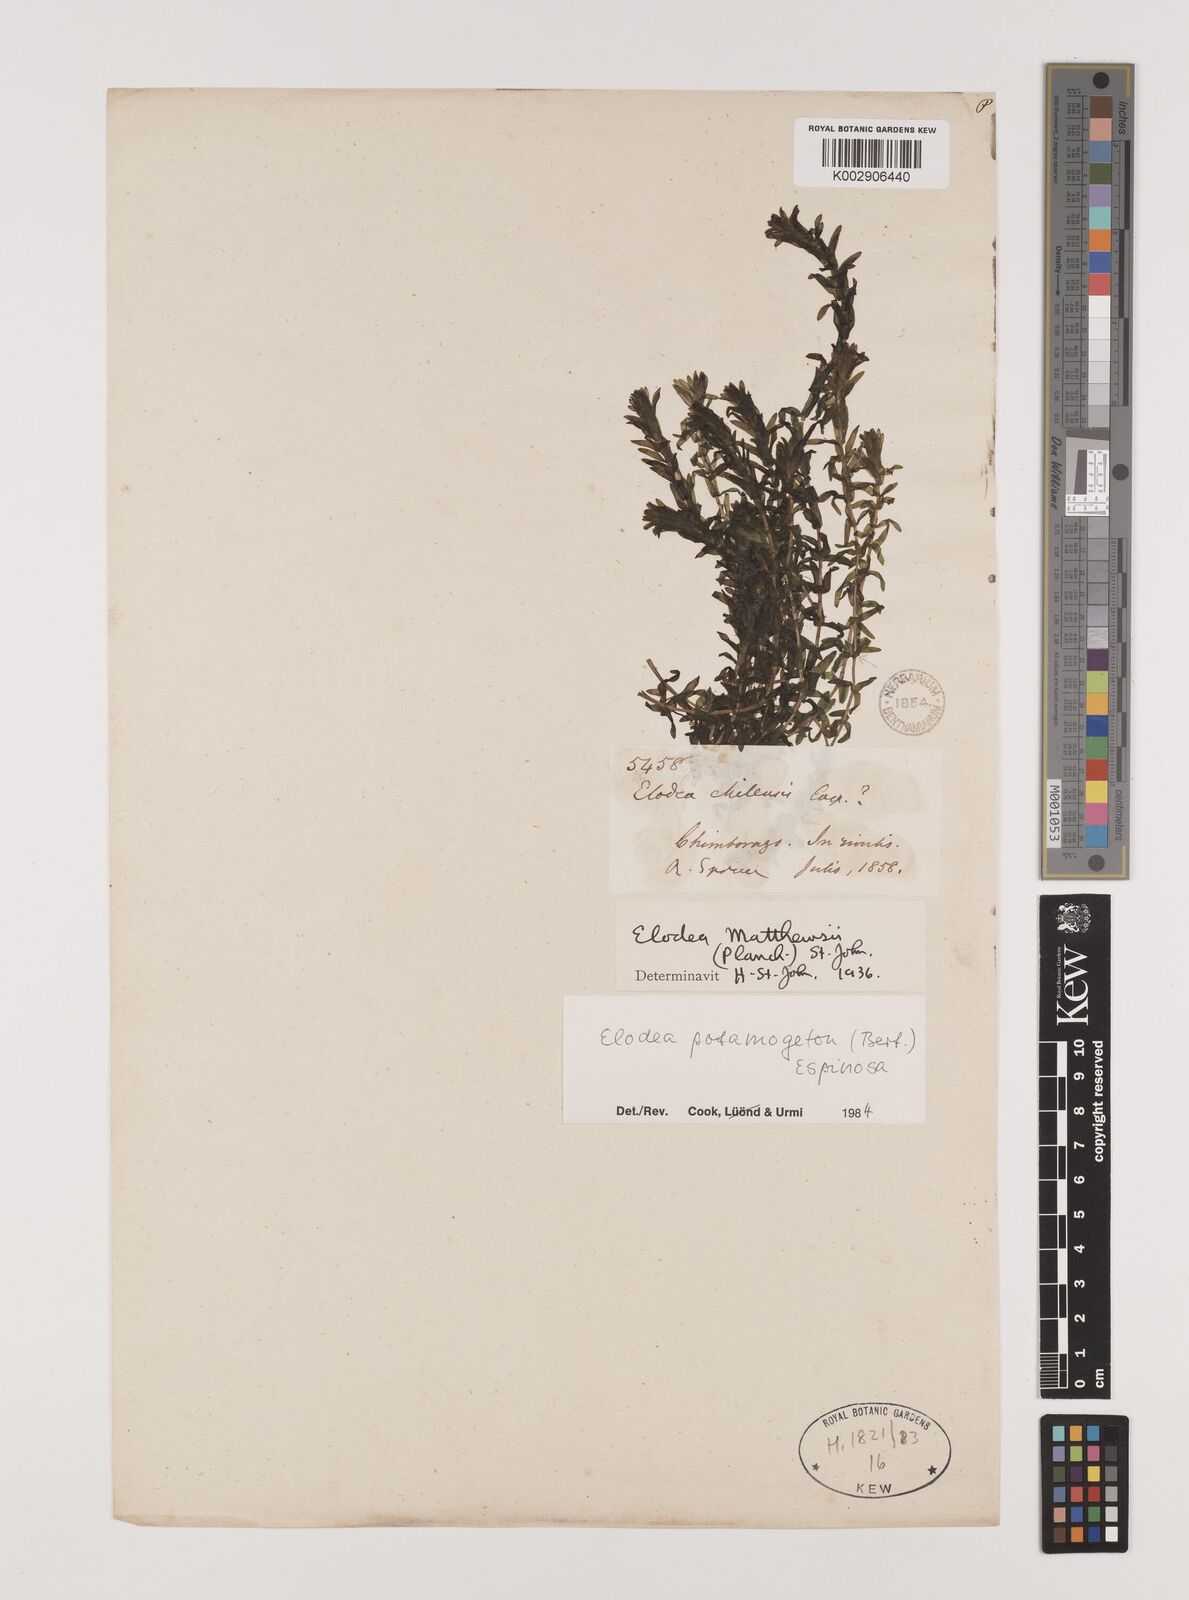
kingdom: Plantae
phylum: Tracheophyta
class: Liliopsida
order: Alismatales
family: Hydrocharitaceae
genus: Elodea
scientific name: Elodea potamogeton
